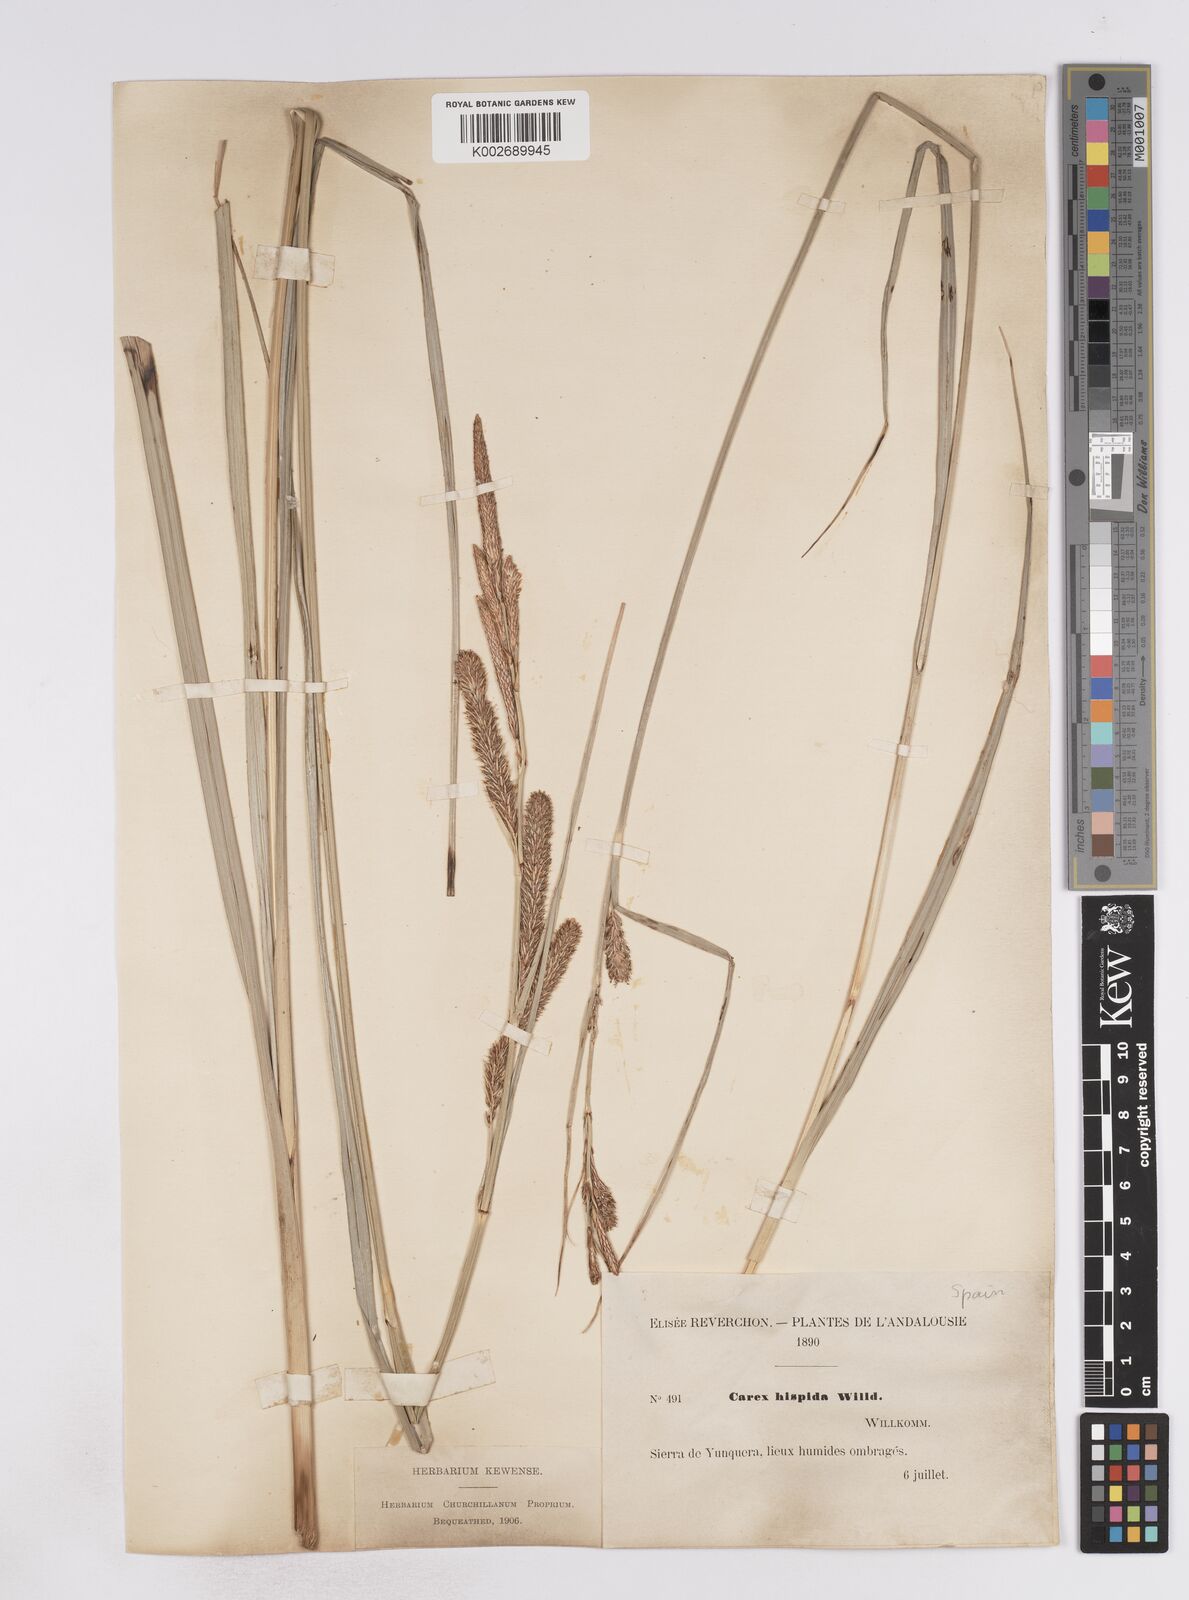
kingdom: Plantae
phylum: Tracheophyta
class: Liliopsida
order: Poales
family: Cyperaceae
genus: Carex
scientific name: Carex hispida
